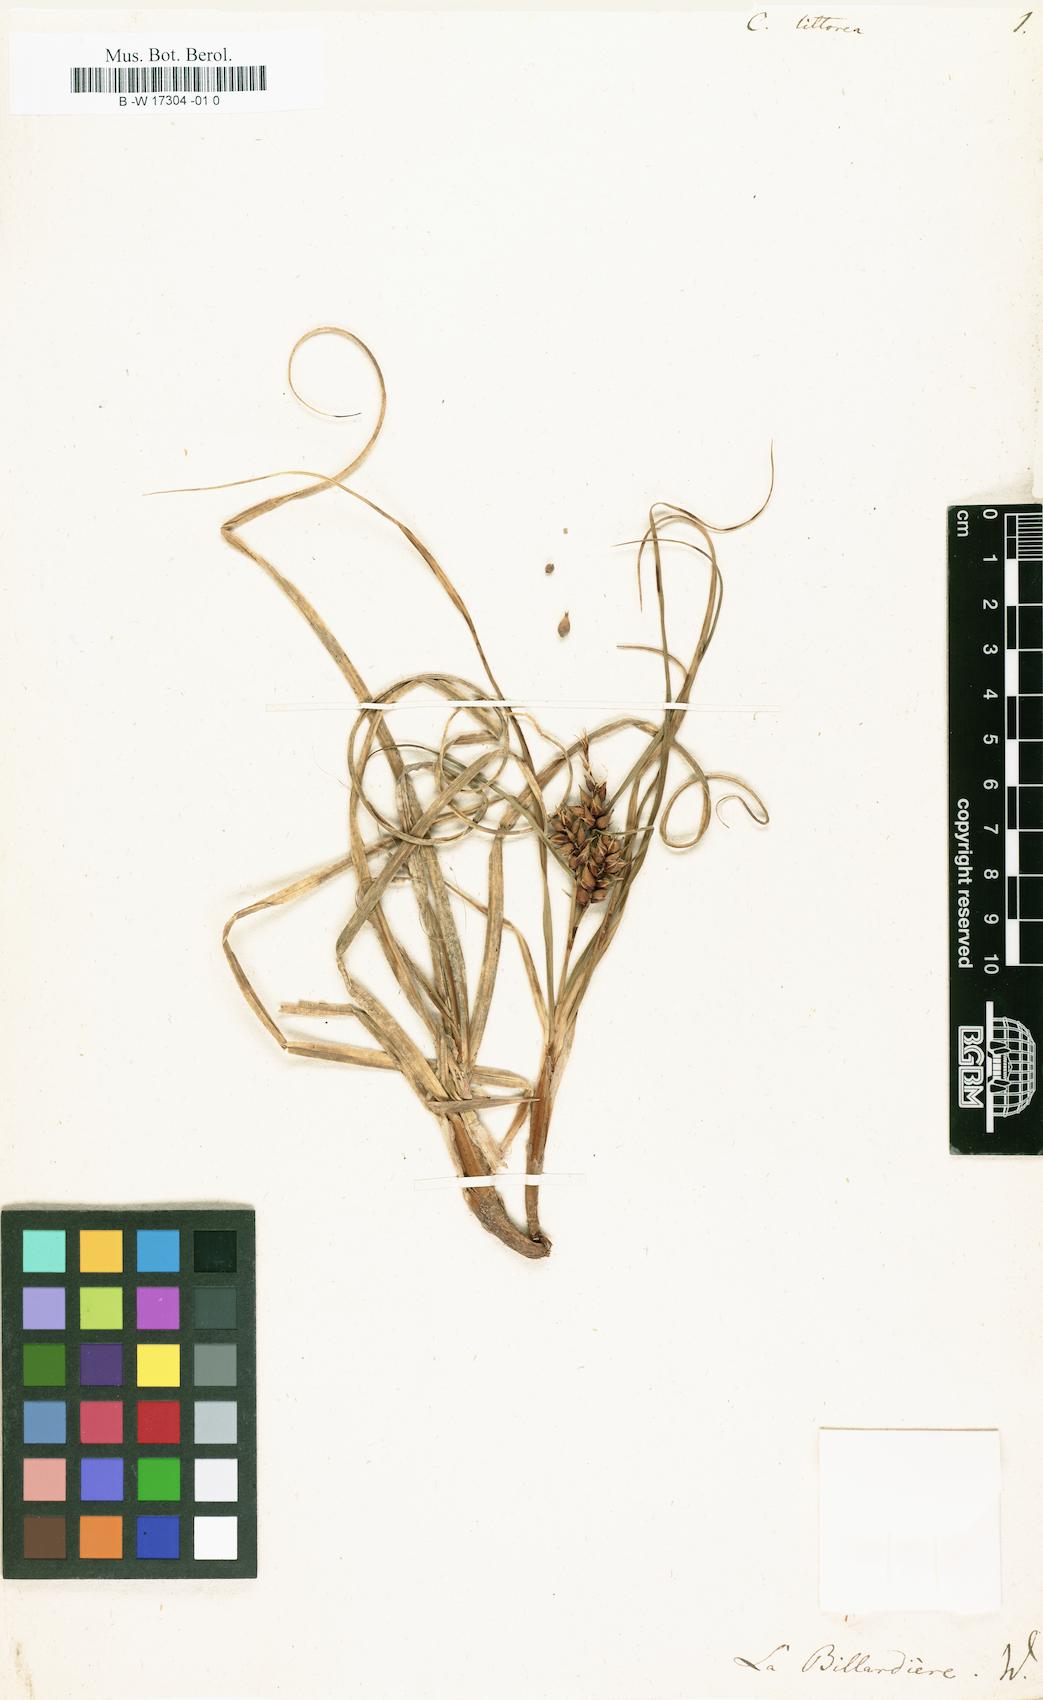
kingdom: Plantae
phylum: Tracheophyta
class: Liliopsida
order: Poales
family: Cyperaceae
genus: Carex
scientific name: Carex pumila
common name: Dwarf sedge
